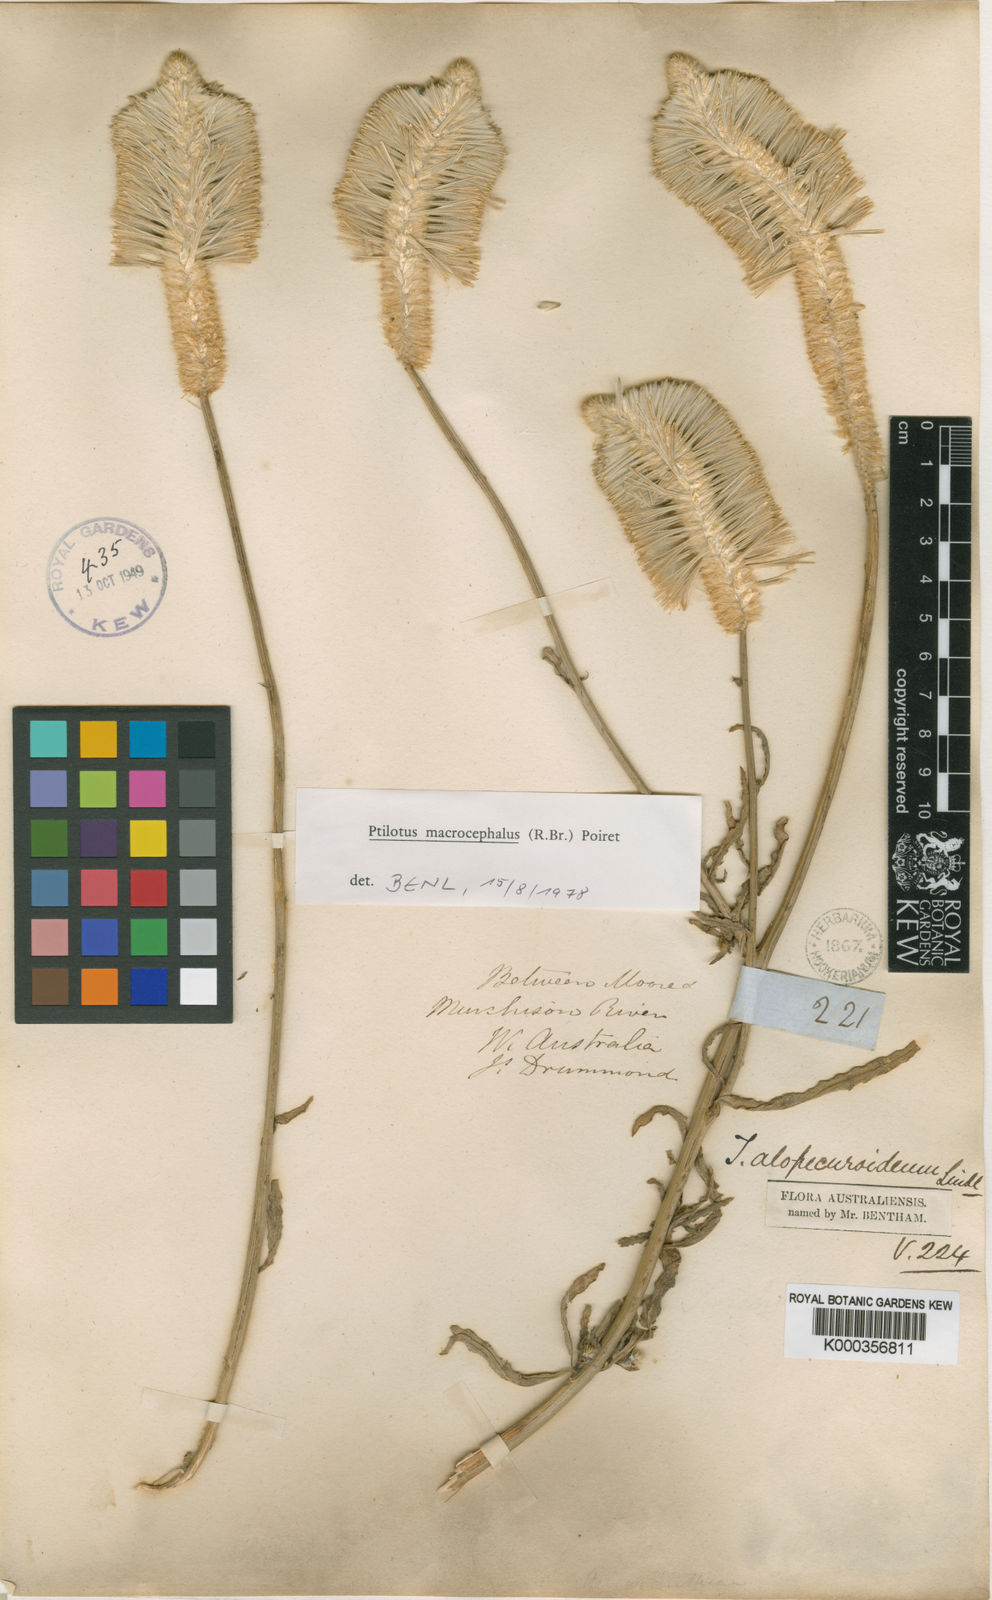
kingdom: Plantae
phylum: Tracheophyta
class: Magnoliopsida
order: Caryophyllales
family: Amaranthaceae
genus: Ptilotus
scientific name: Ptilotus macrocephalus
